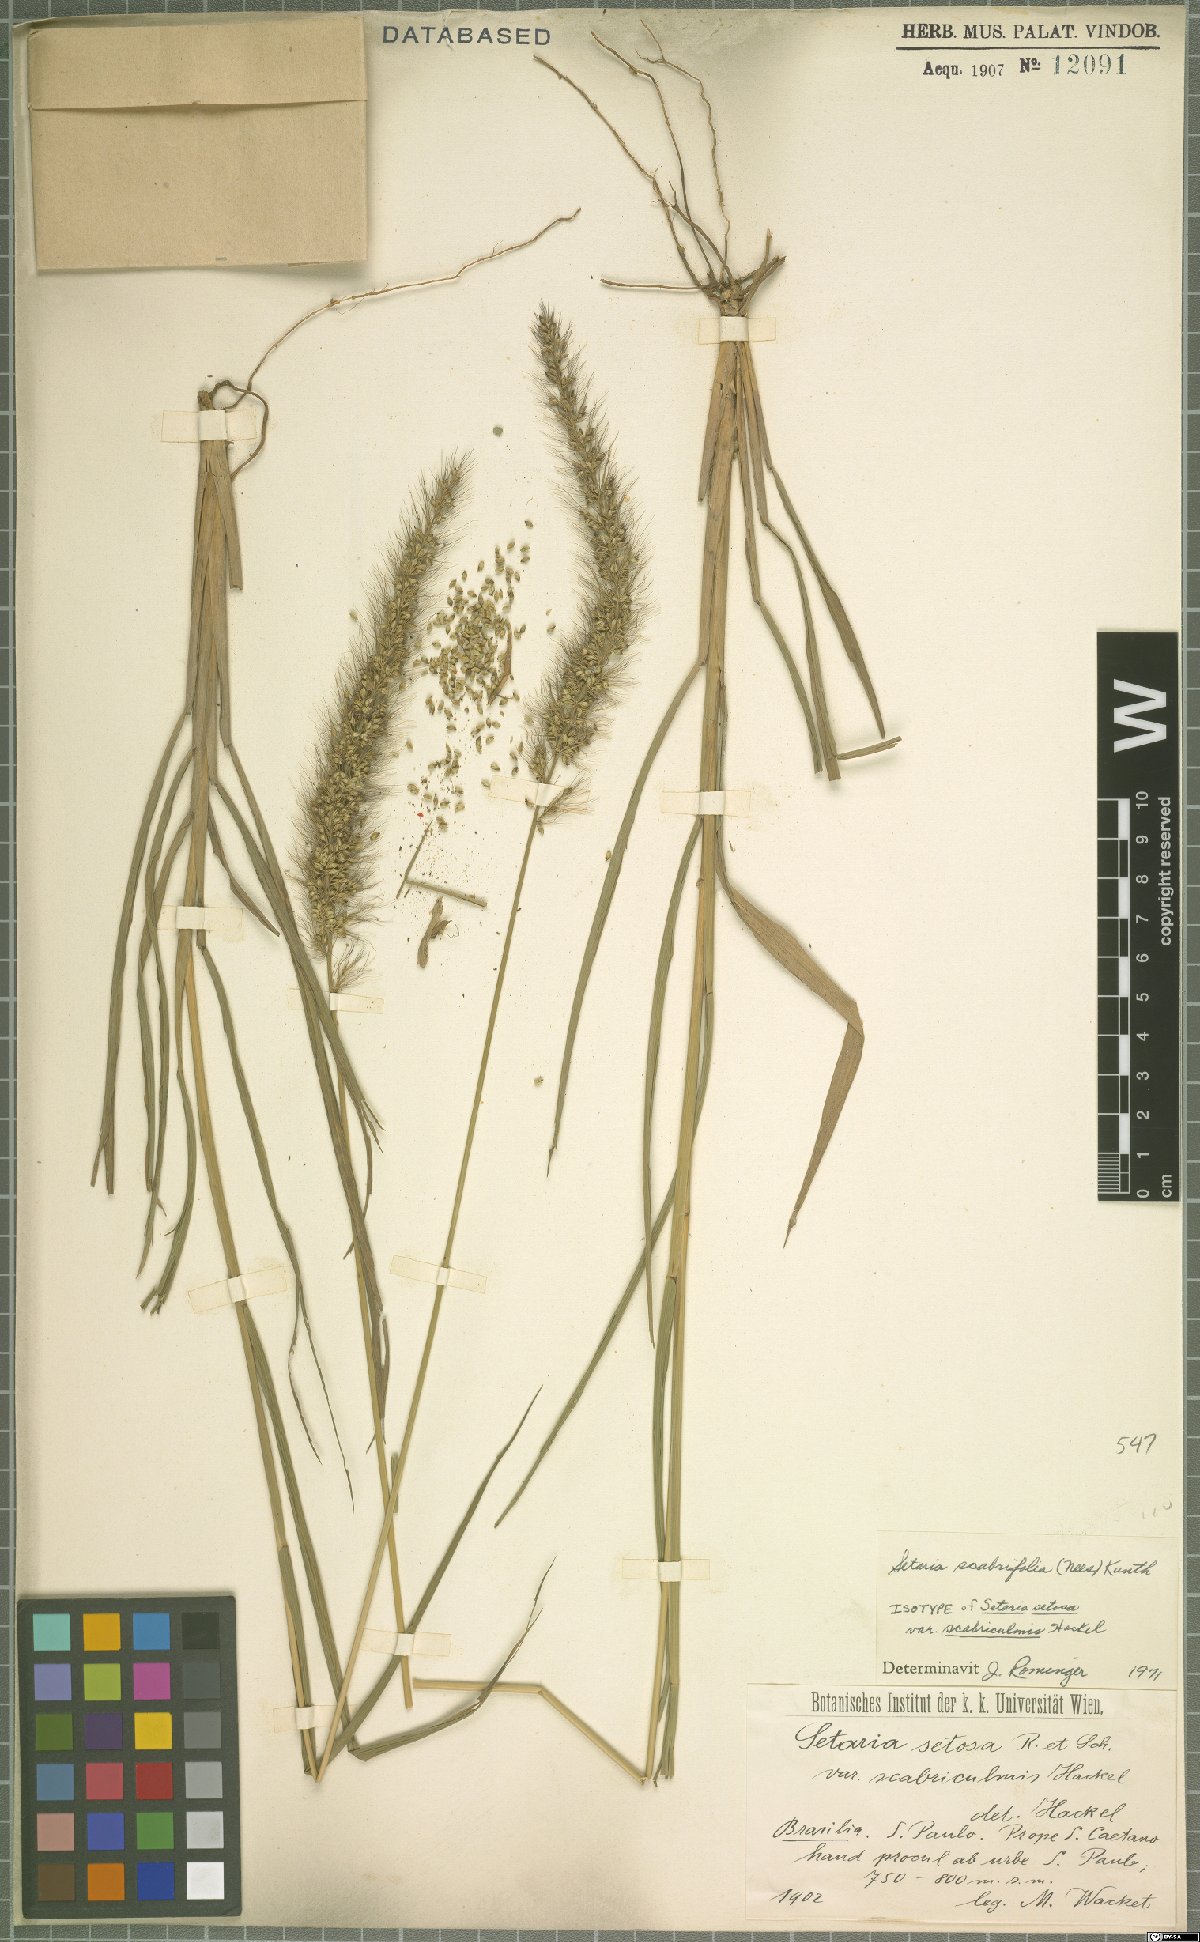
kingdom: Plantae
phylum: Tracheophyta
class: Liliopsida
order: Poales
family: Poaceae
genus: Setaria
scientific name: Setaria scabrifolia
